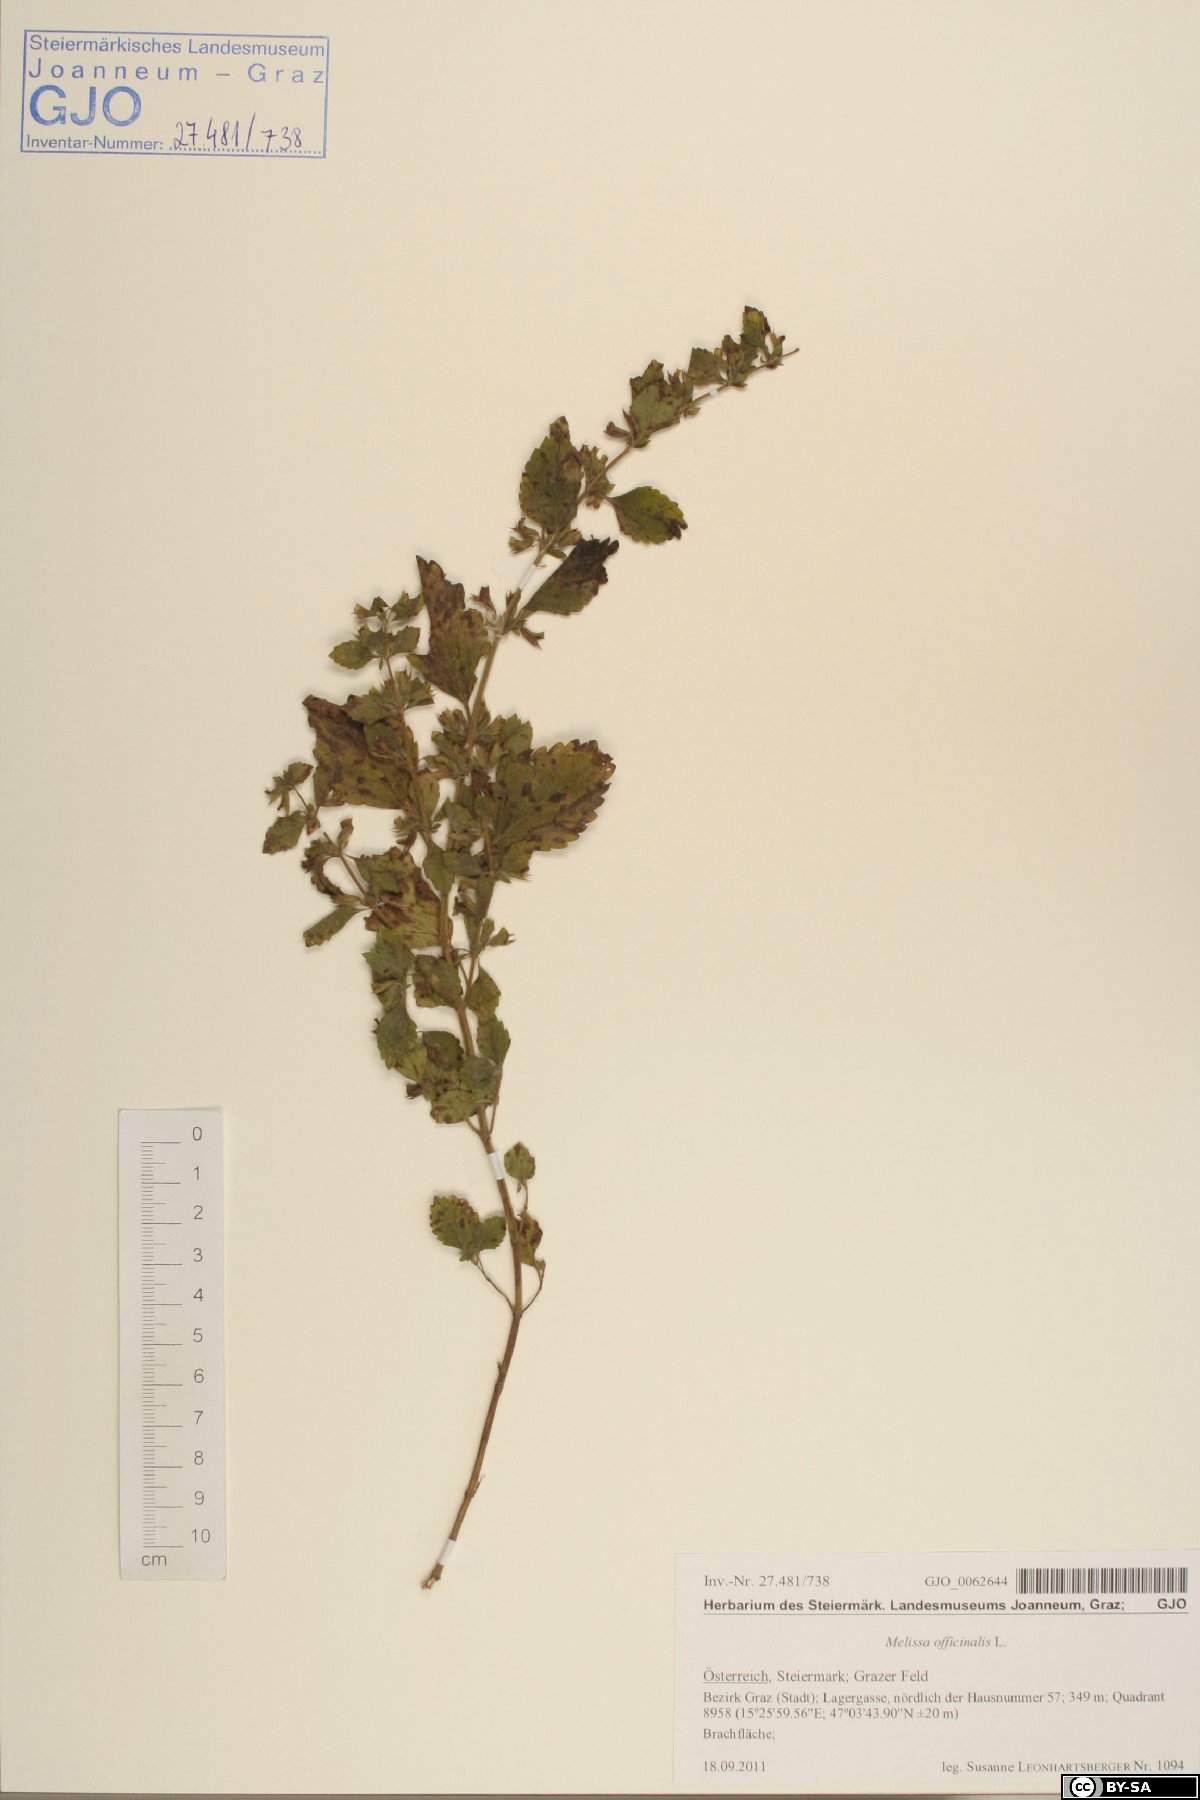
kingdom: Plantae
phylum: Tracheophyta
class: Magnoliopsida
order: Lamiales
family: Lamiaceae
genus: Melissa
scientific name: Melissa officinalis
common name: Balm
